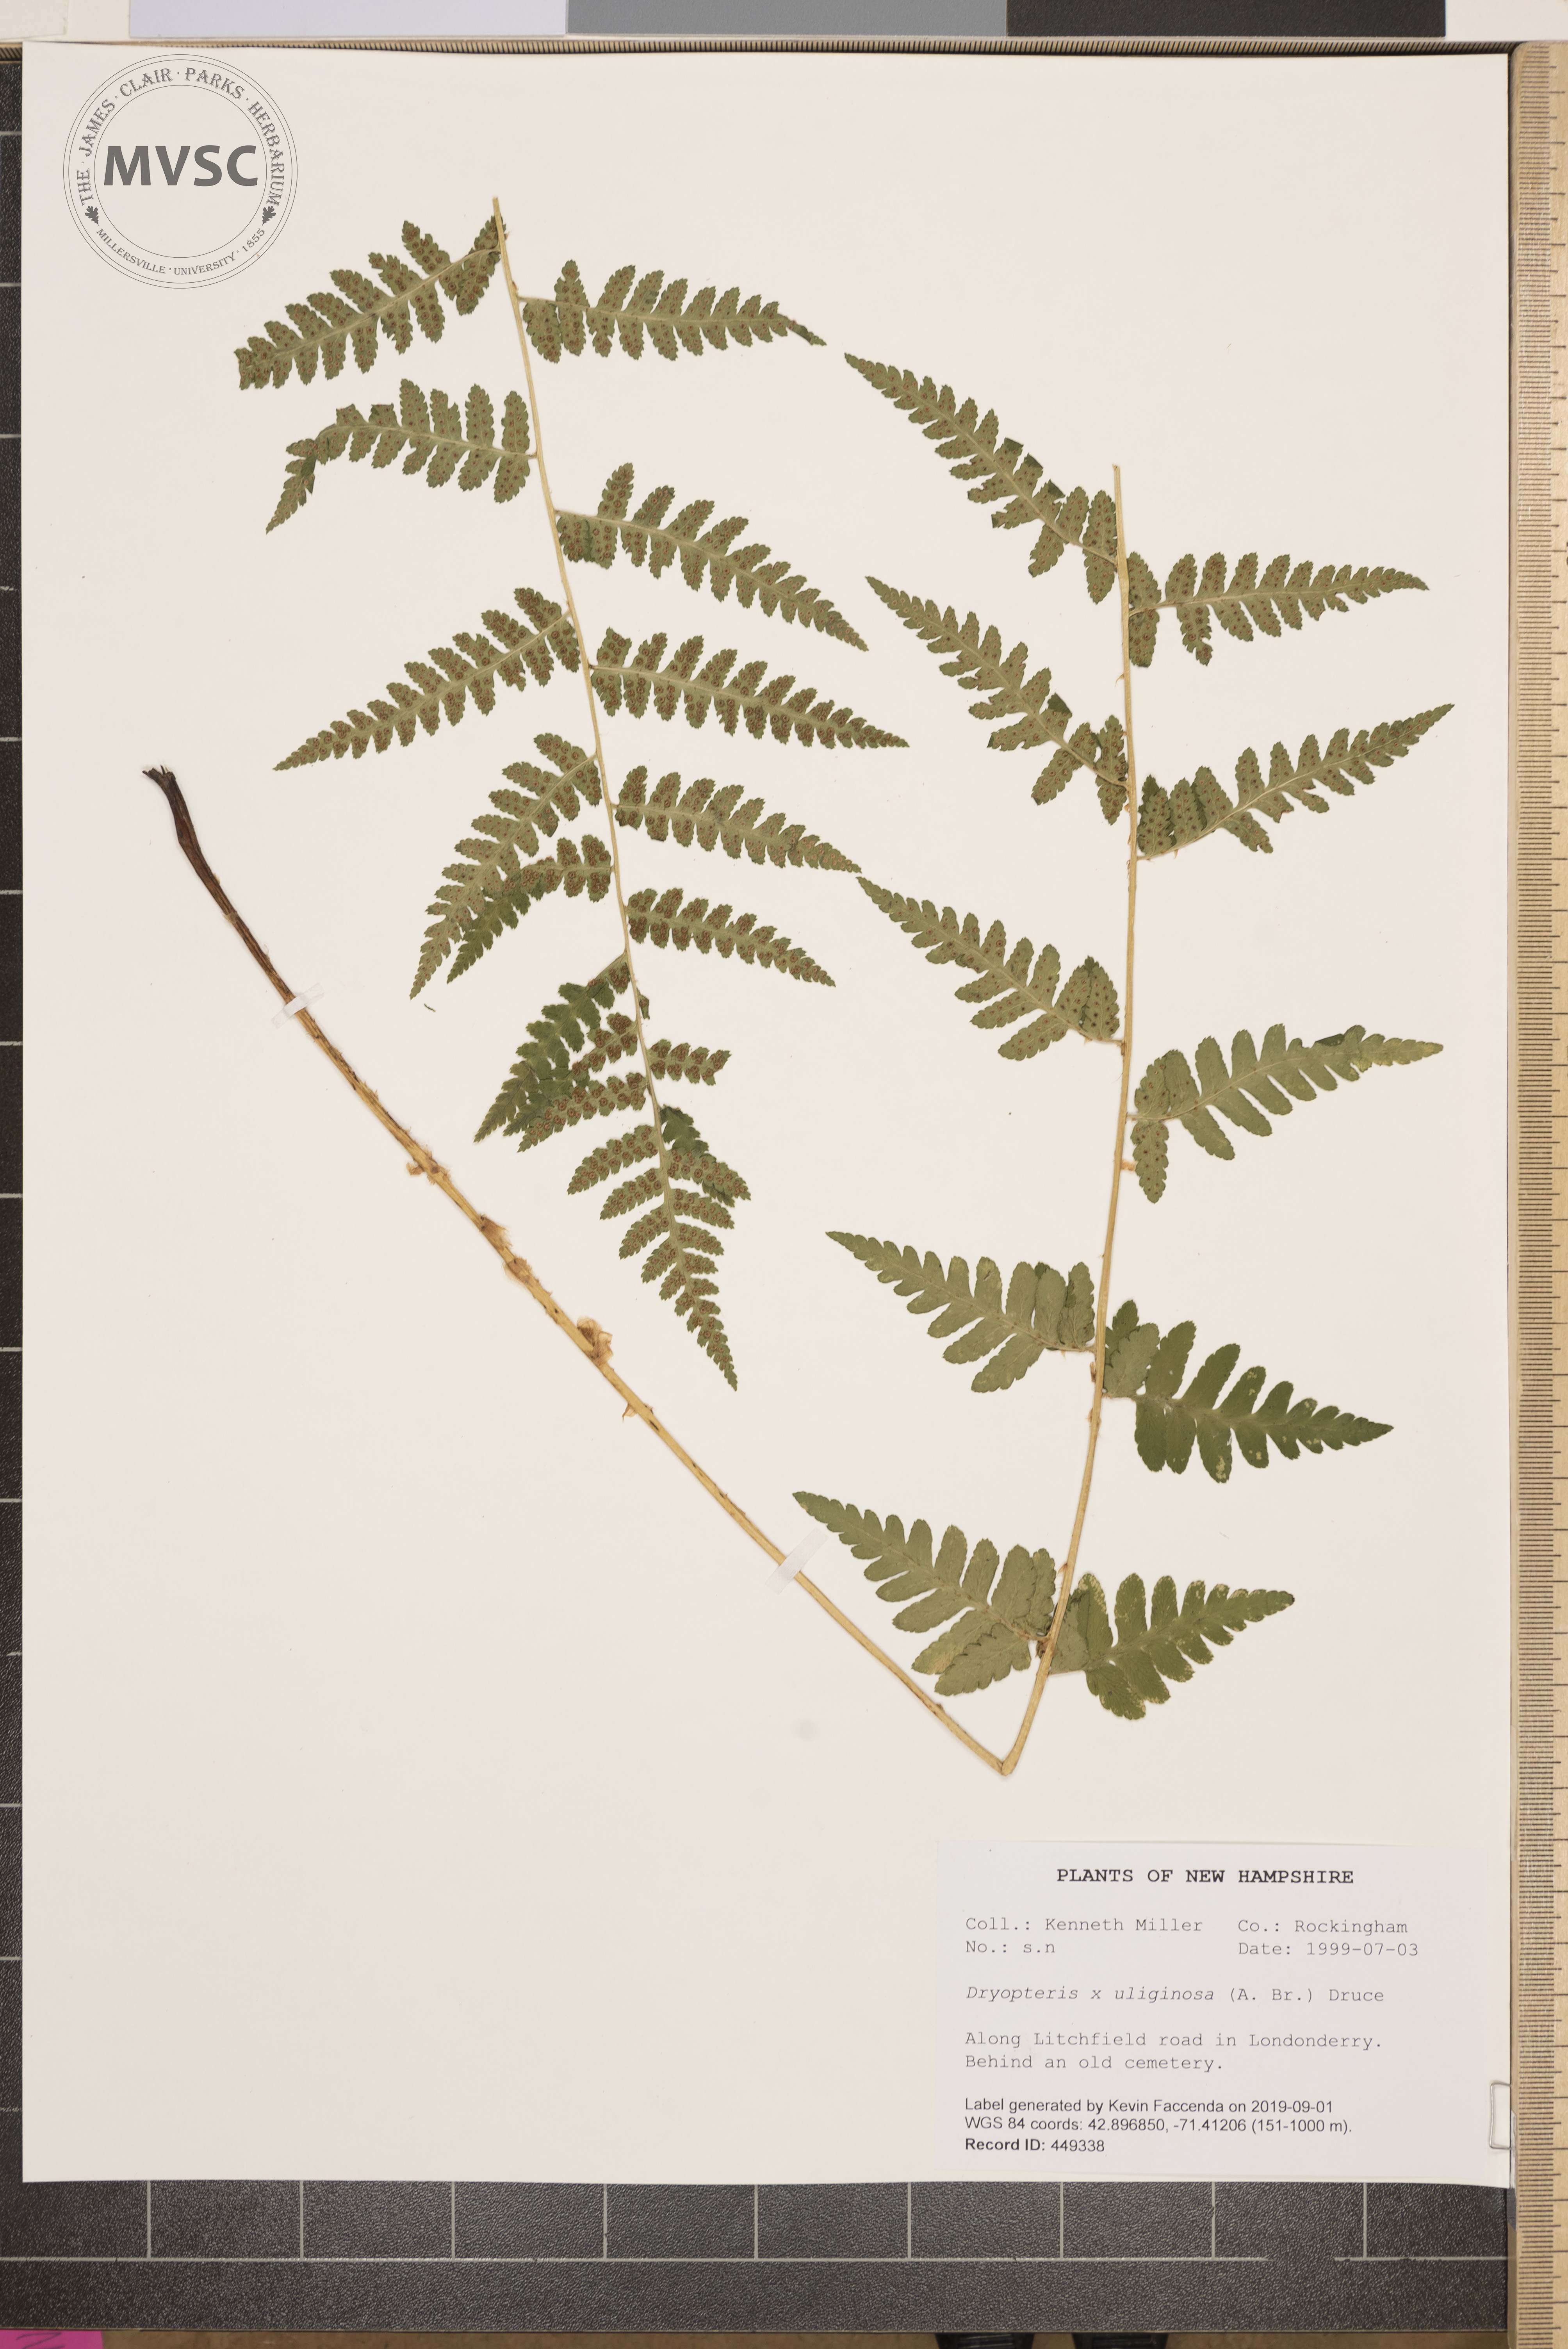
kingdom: Plantae
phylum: Tracheophyta
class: Polypodiopsida
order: Polypodiales
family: Dryopteridaceae
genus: Dryopteris
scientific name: Dryopteris uliginosa
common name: Woodfern
